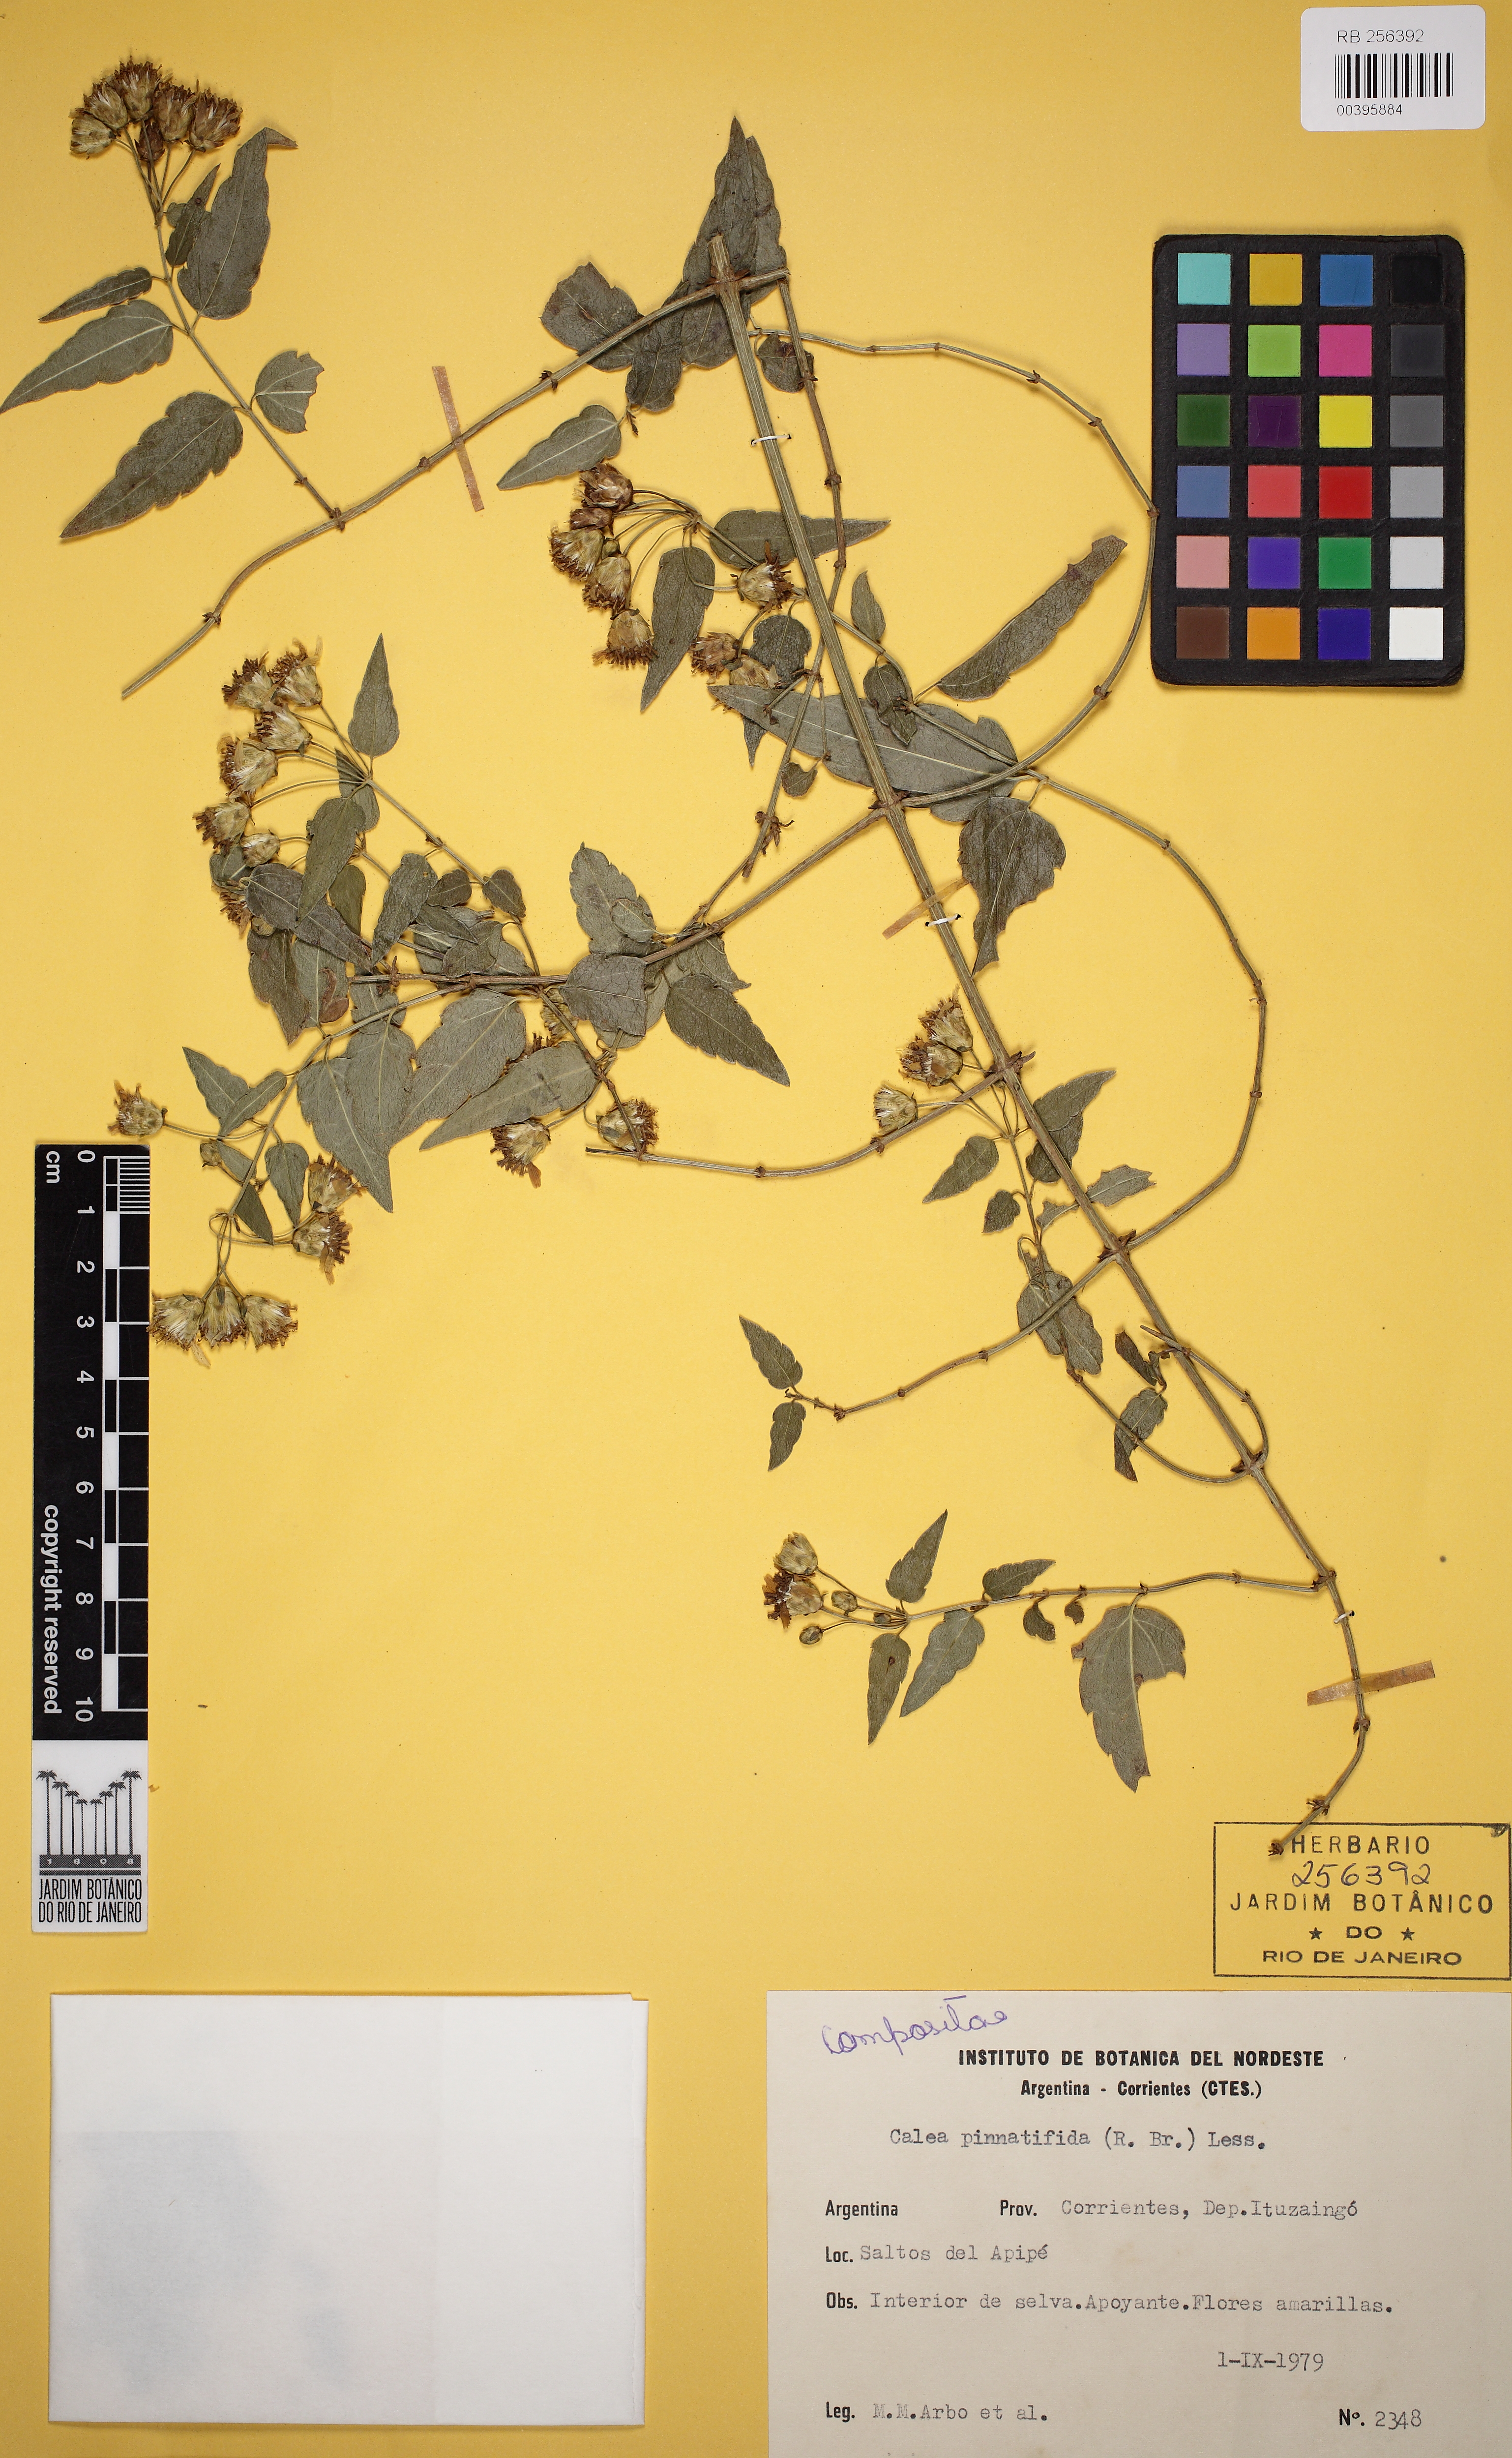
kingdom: Plantae
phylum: Tracheophyta
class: Magnoliopsida
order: Asterales
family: Asteraceae
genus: Calea
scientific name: Calea pinnatifida
